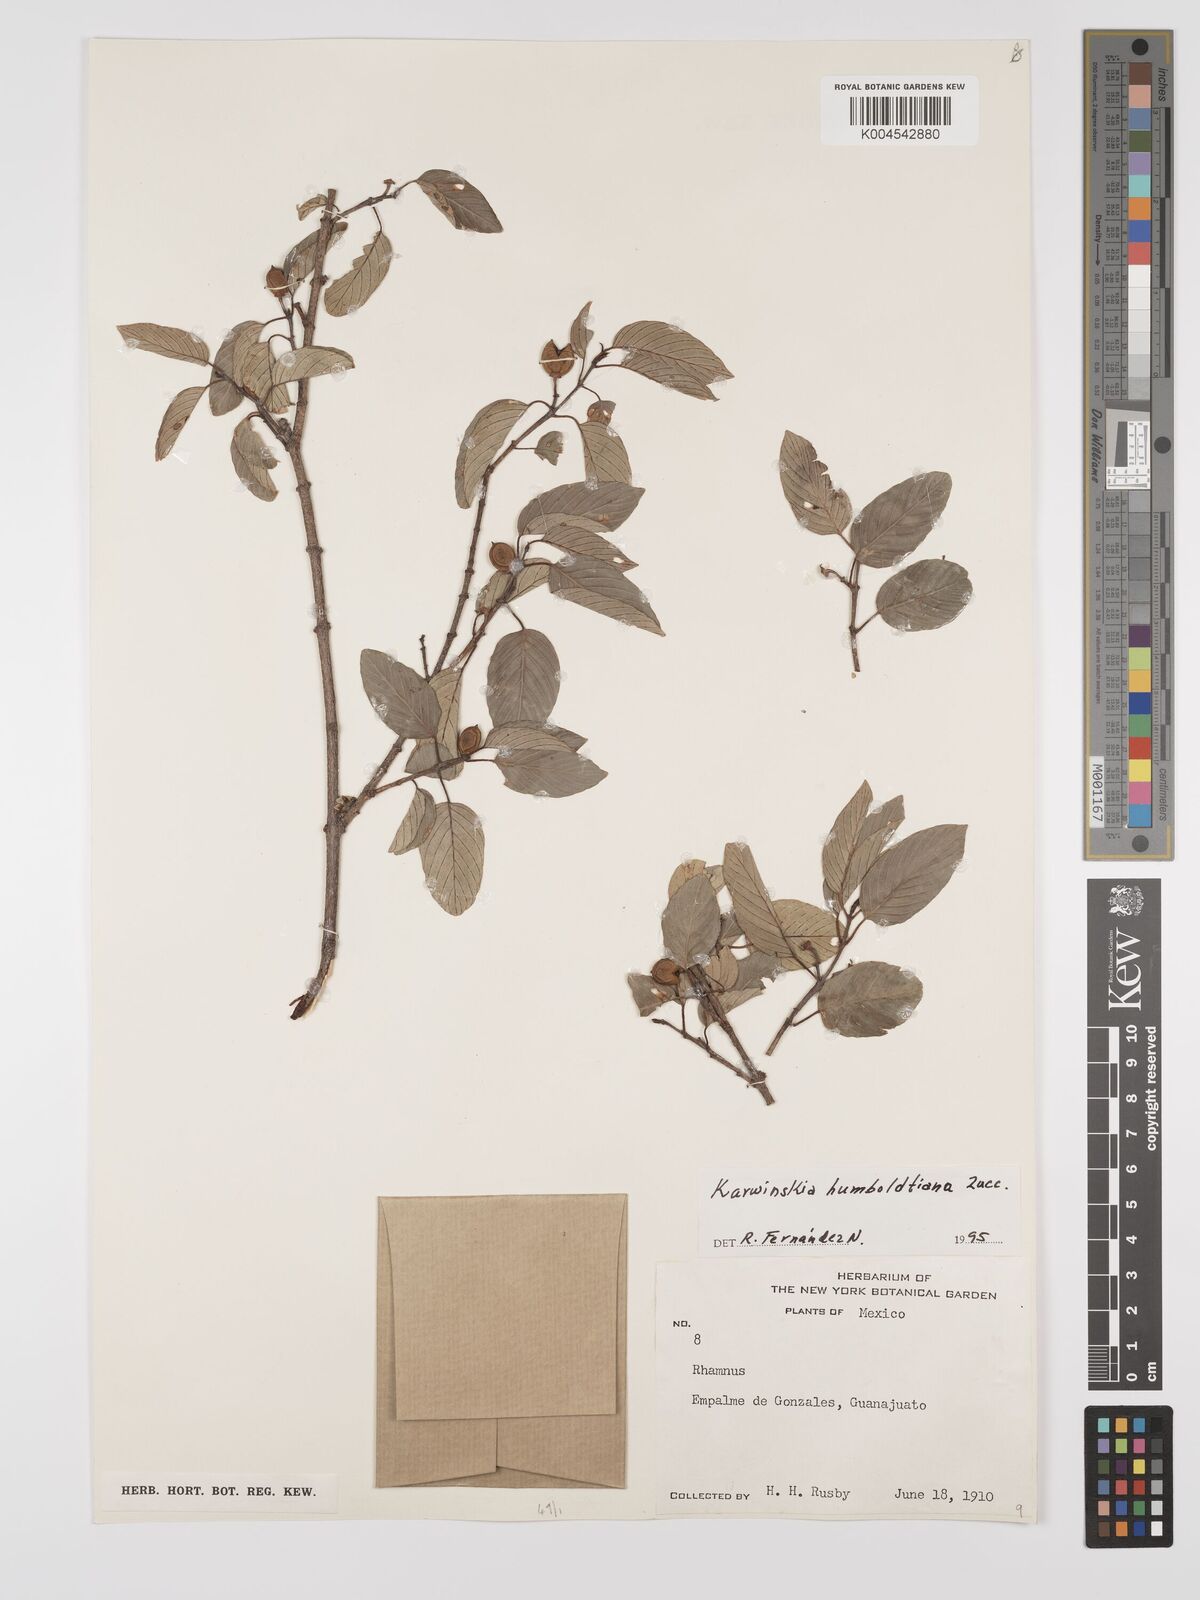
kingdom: Plantae
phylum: Tracheophyta
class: Magnoliopsida
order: Rosales
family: Rhamnaceae
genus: Karwinskia
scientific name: Karwinskia humboldtiana
